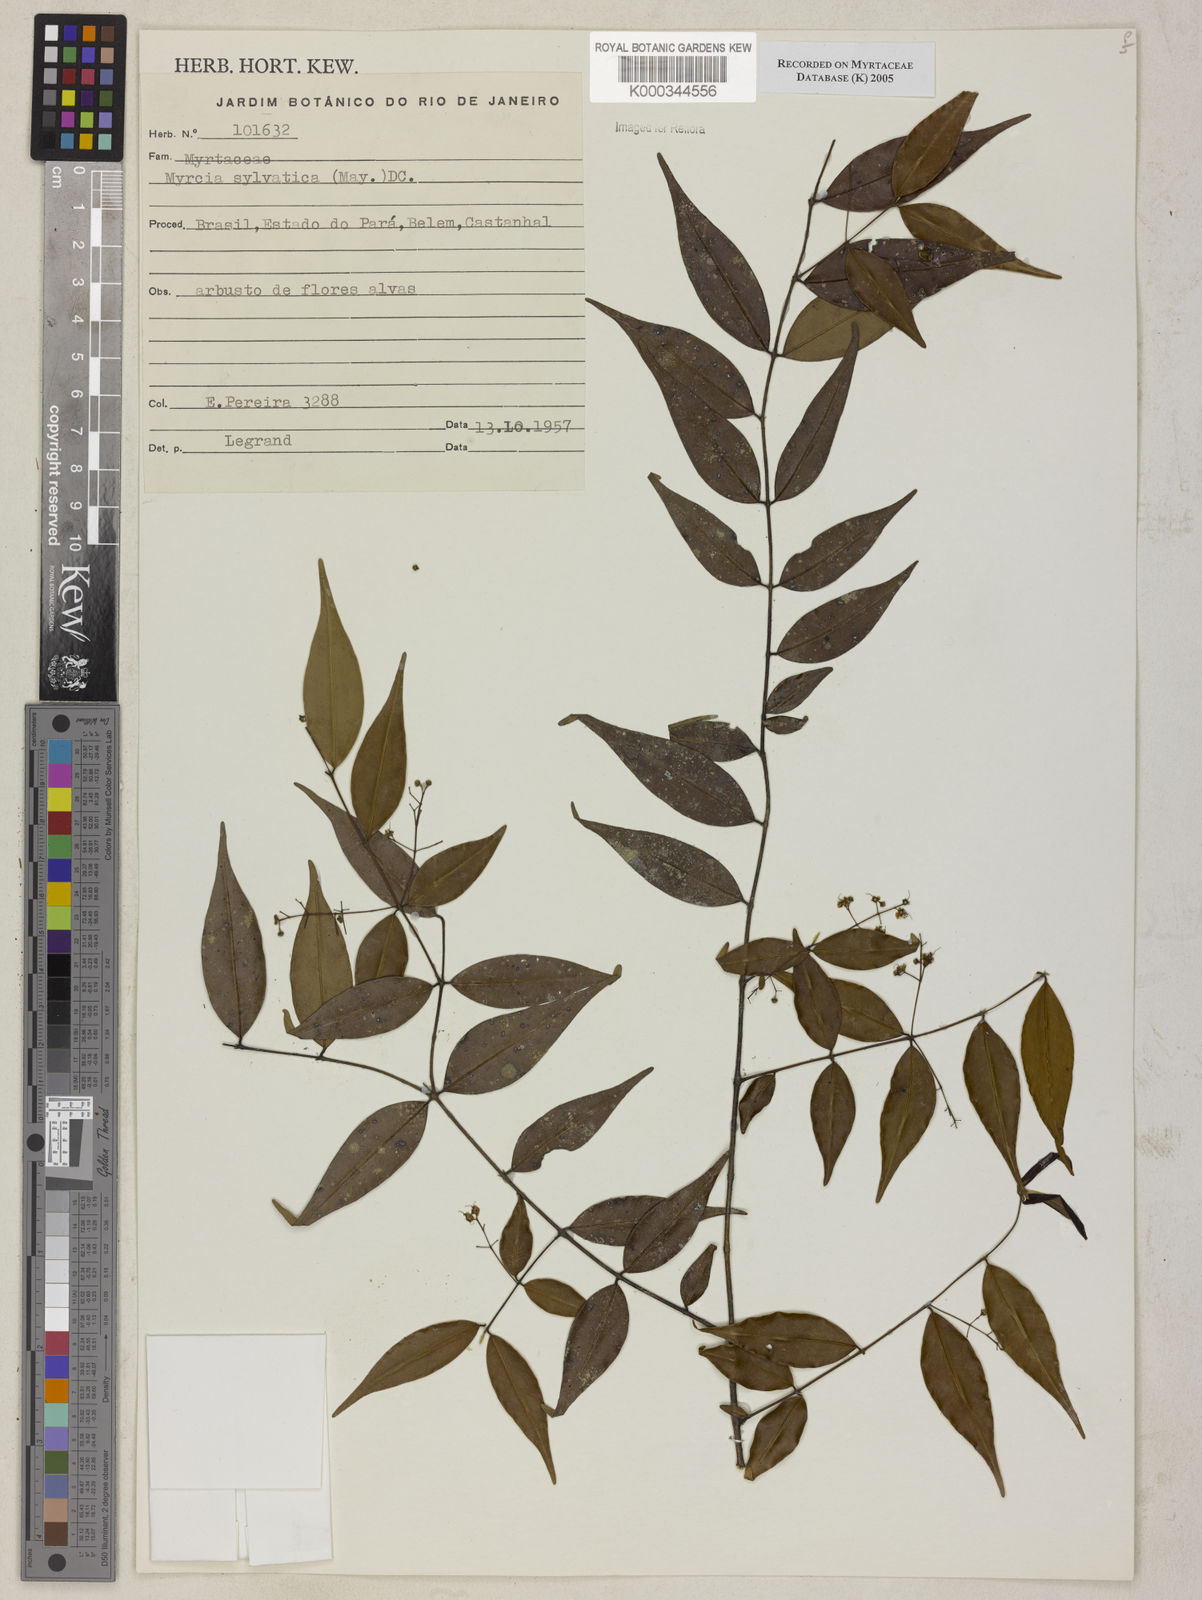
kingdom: Plantae
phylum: Tracheophyta
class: Magnoliopsida
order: Myrtales
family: Myrtaceae
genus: Myrcia
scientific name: Myrcia sylvatica
